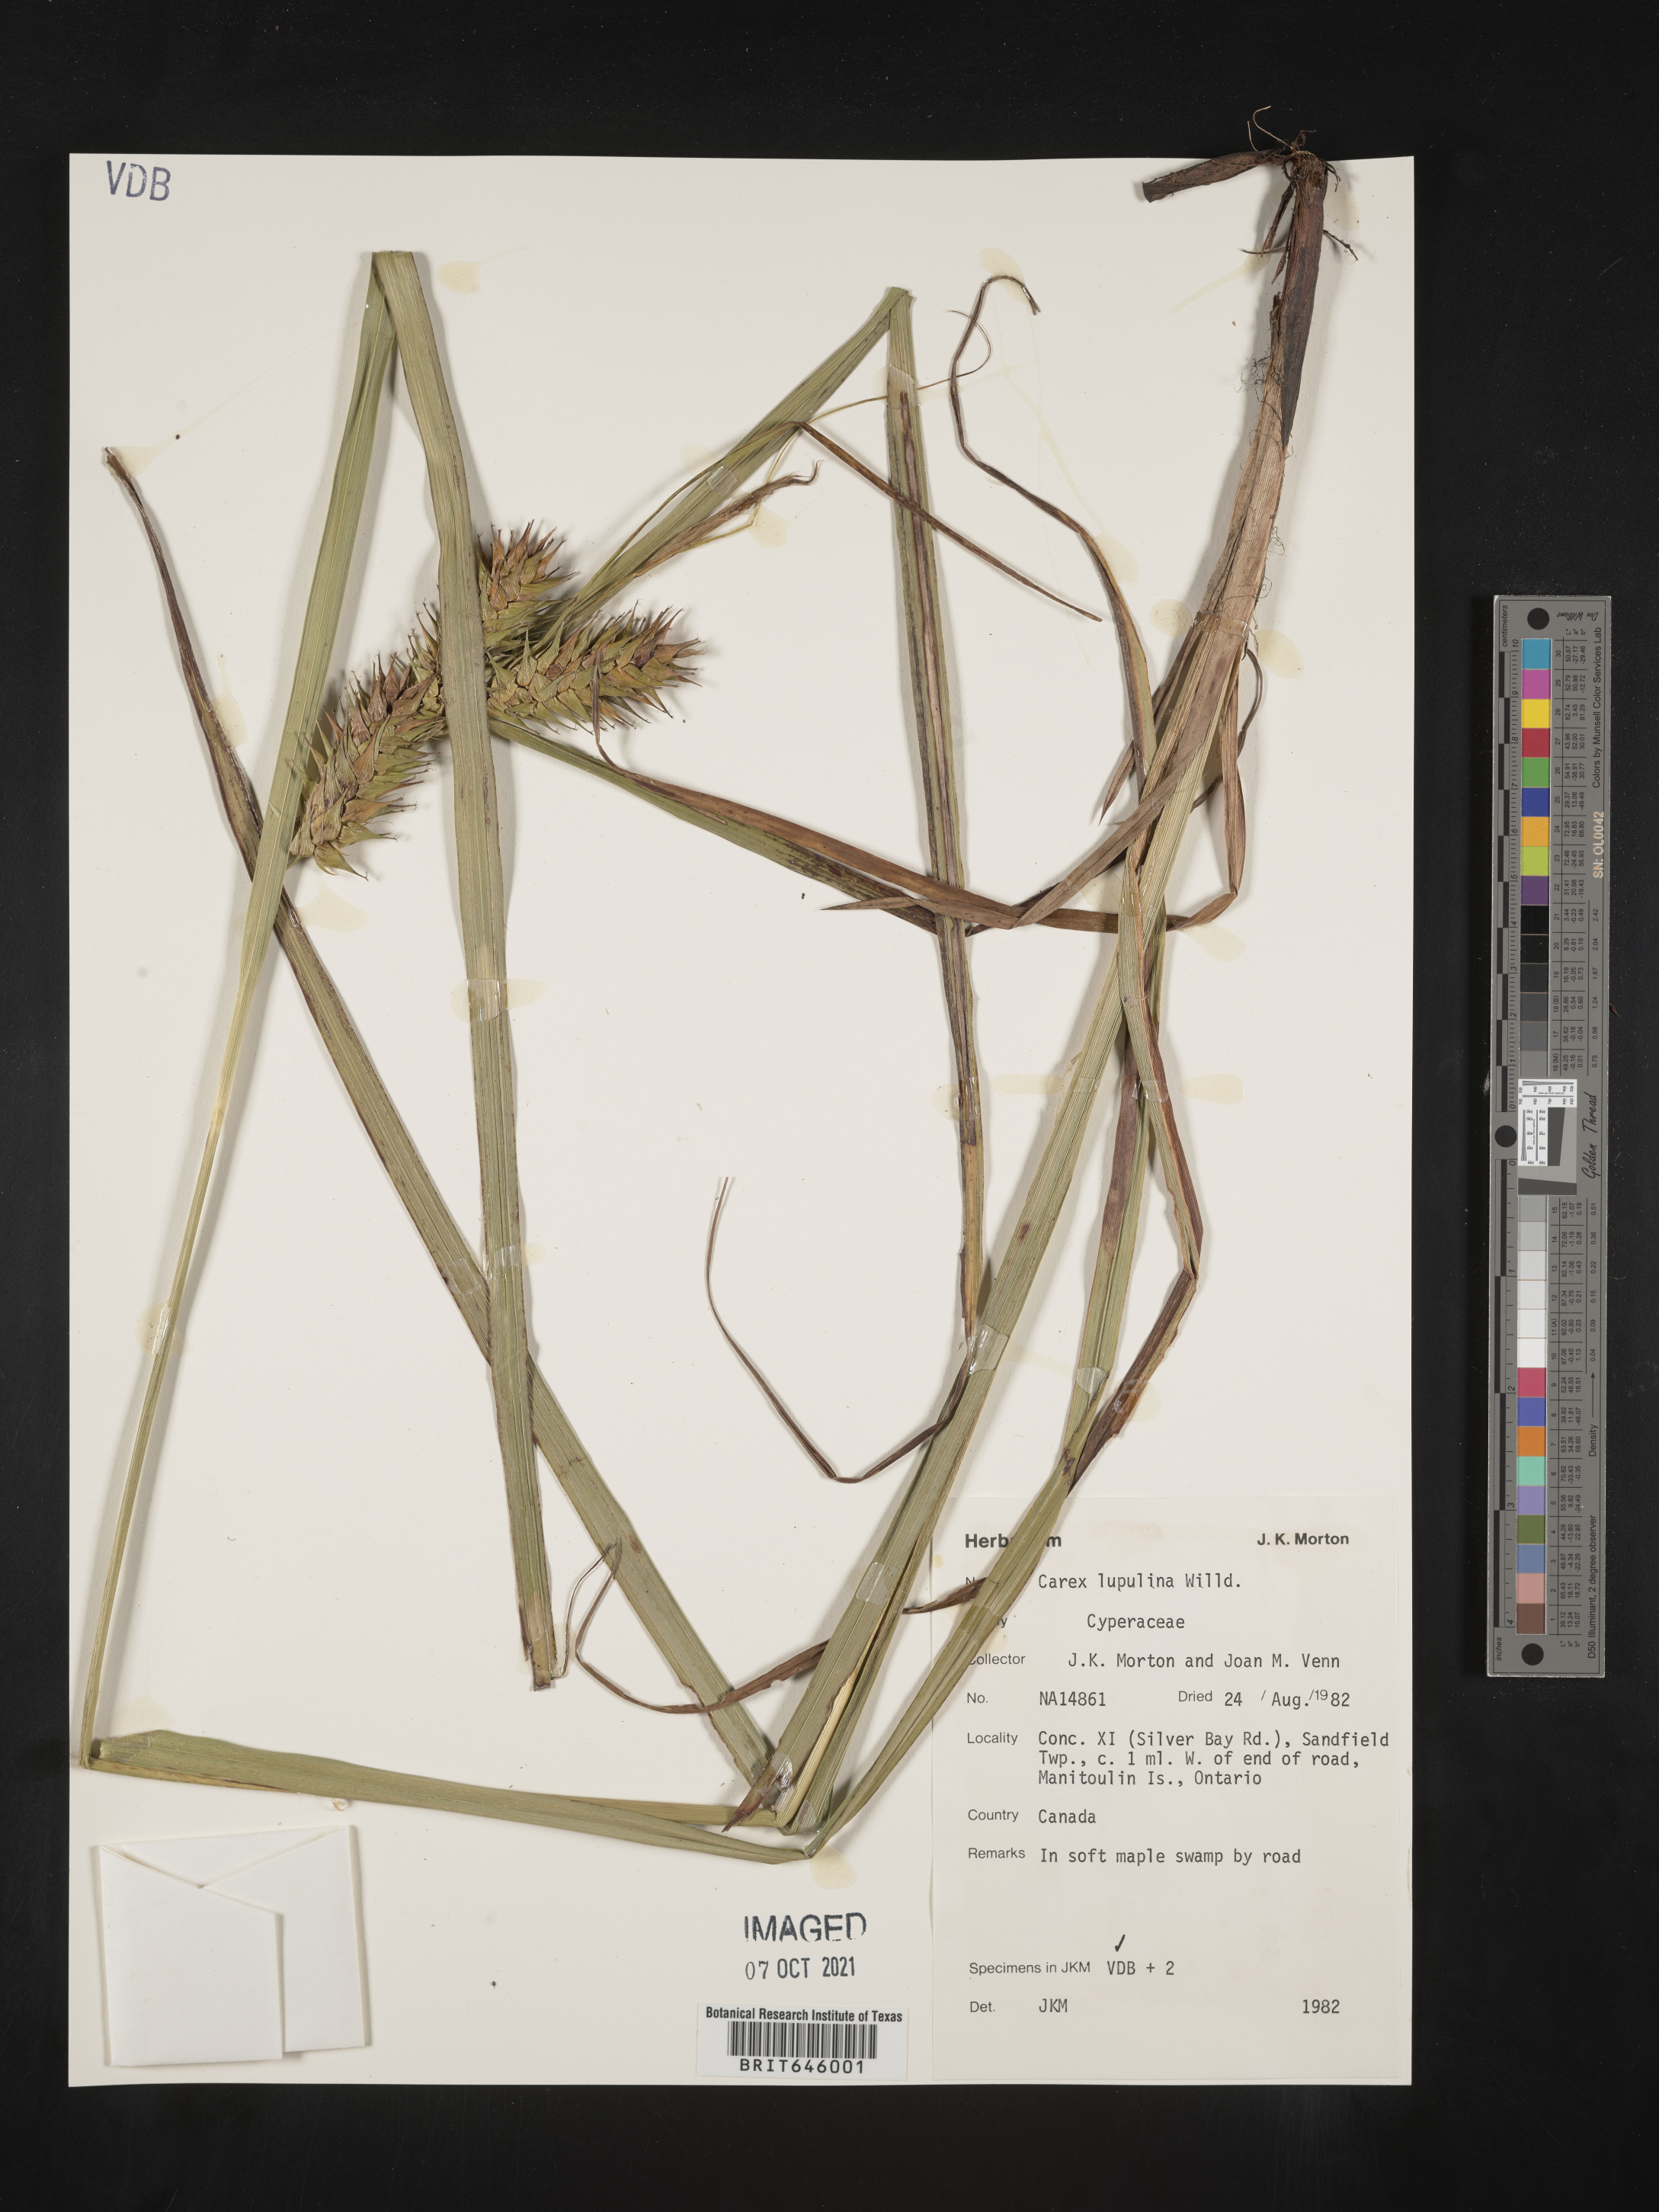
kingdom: Plantae
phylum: Tracheophyta
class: Liliopsida
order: Poales
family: Cyperaceae
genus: Carex
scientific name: Carex lupulina
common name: Hop sedge
